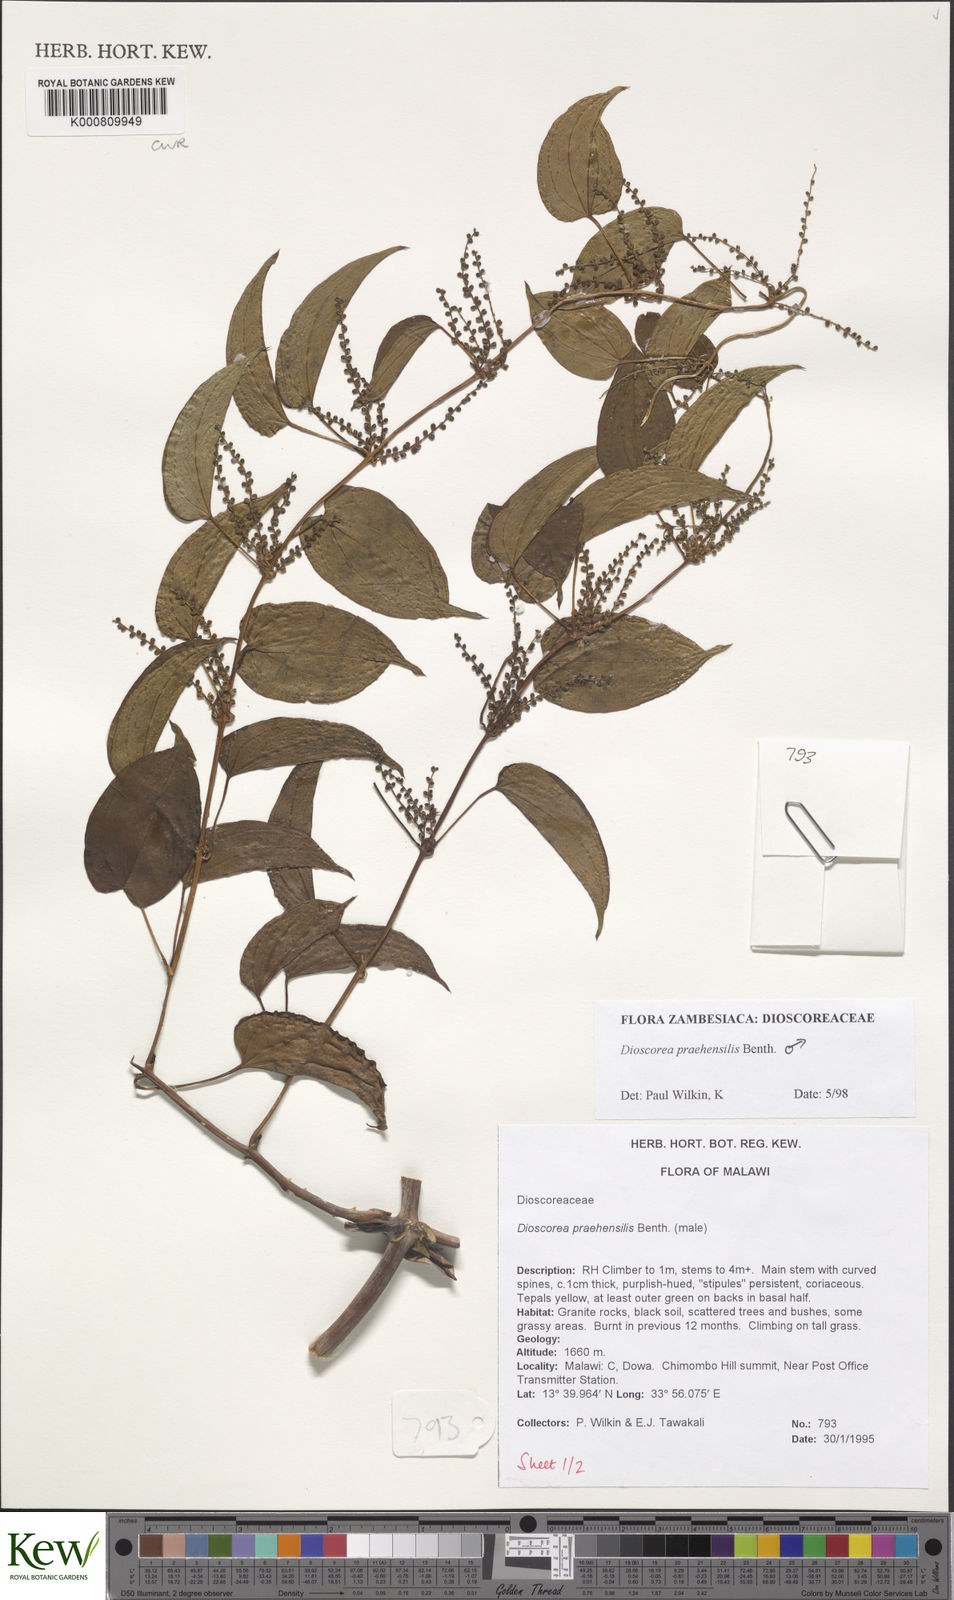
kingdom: Plantae
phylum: Tracheophyta
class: Liliopsida
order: Dioscoreales
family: Dioscoreaceae
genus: Dioscorea
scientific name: Dioscorea praehensilis
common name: Bush yam
